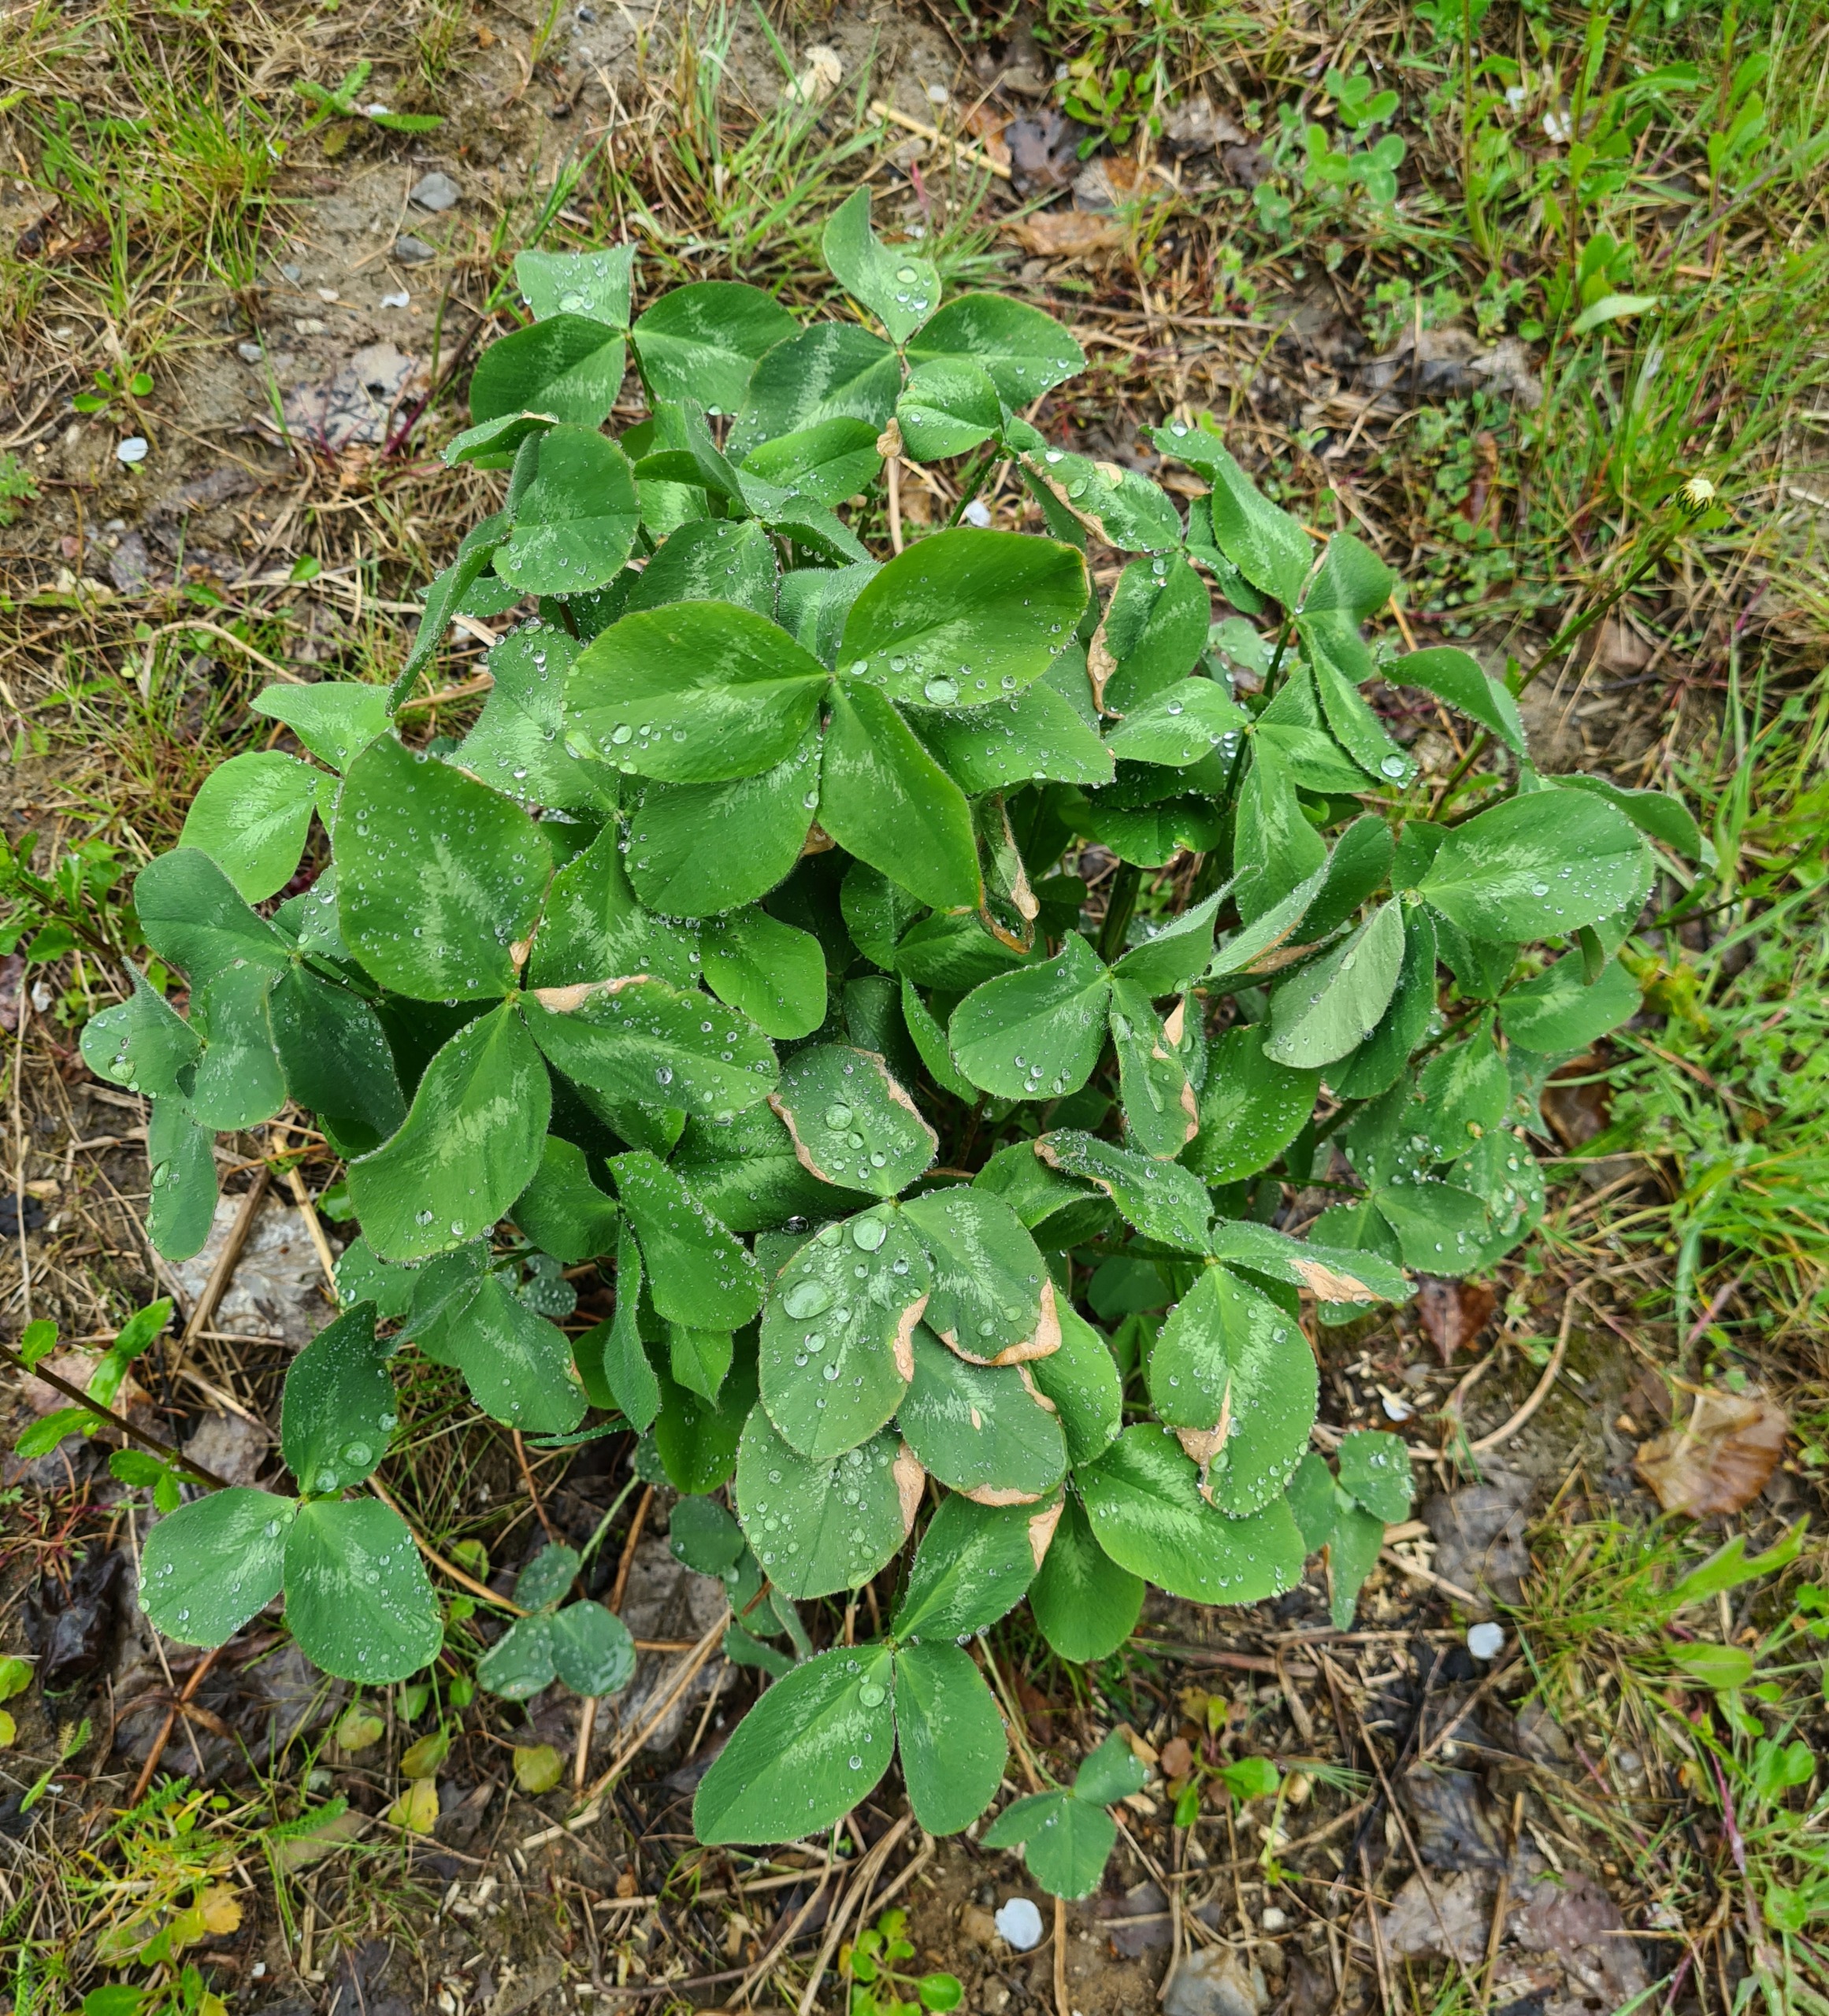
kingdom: Plantae
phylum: Tracheophyta
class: Magnoliopsida
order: Fabales
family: Fabaceae
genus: Trifolium
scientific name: Trifolium pratense
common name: Rød-kløver
